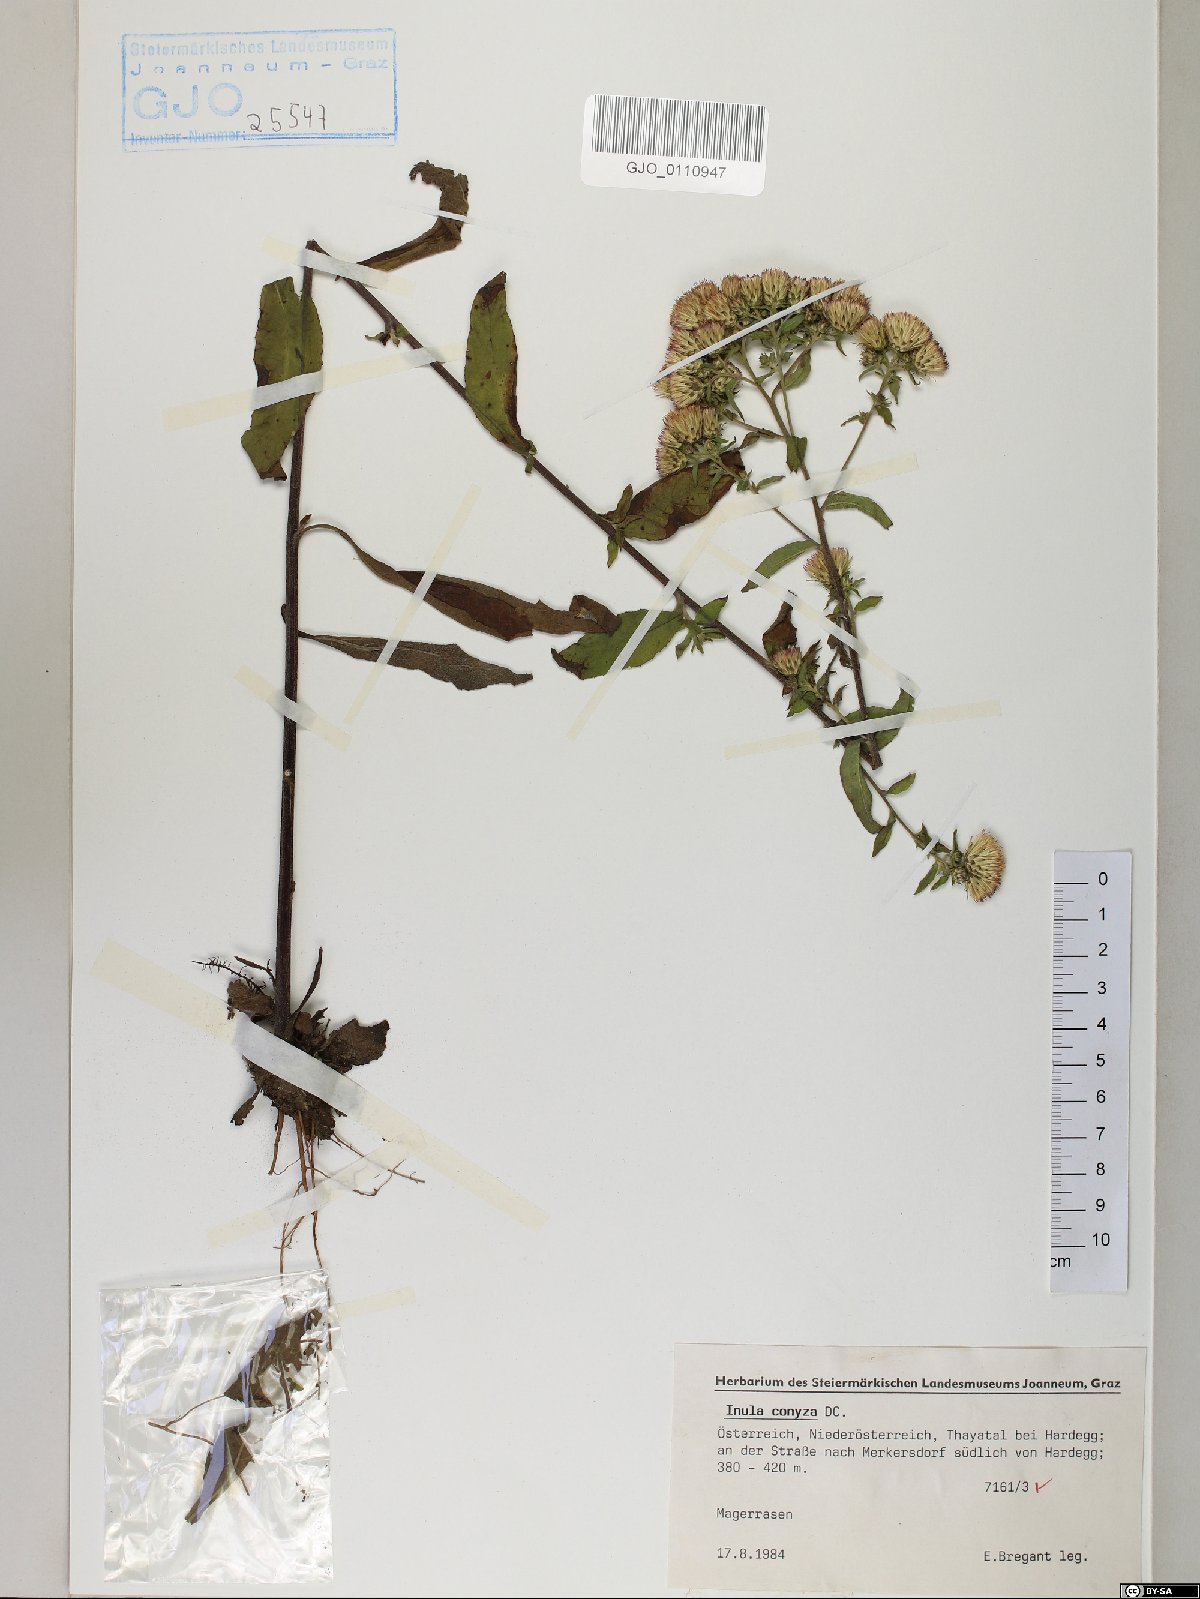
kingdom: Plantae
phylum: Tracheophyta
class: Magnoliopsida
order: Asterales
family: Asteraceae
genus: Pentanema
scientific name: Pentanema squarrosum
